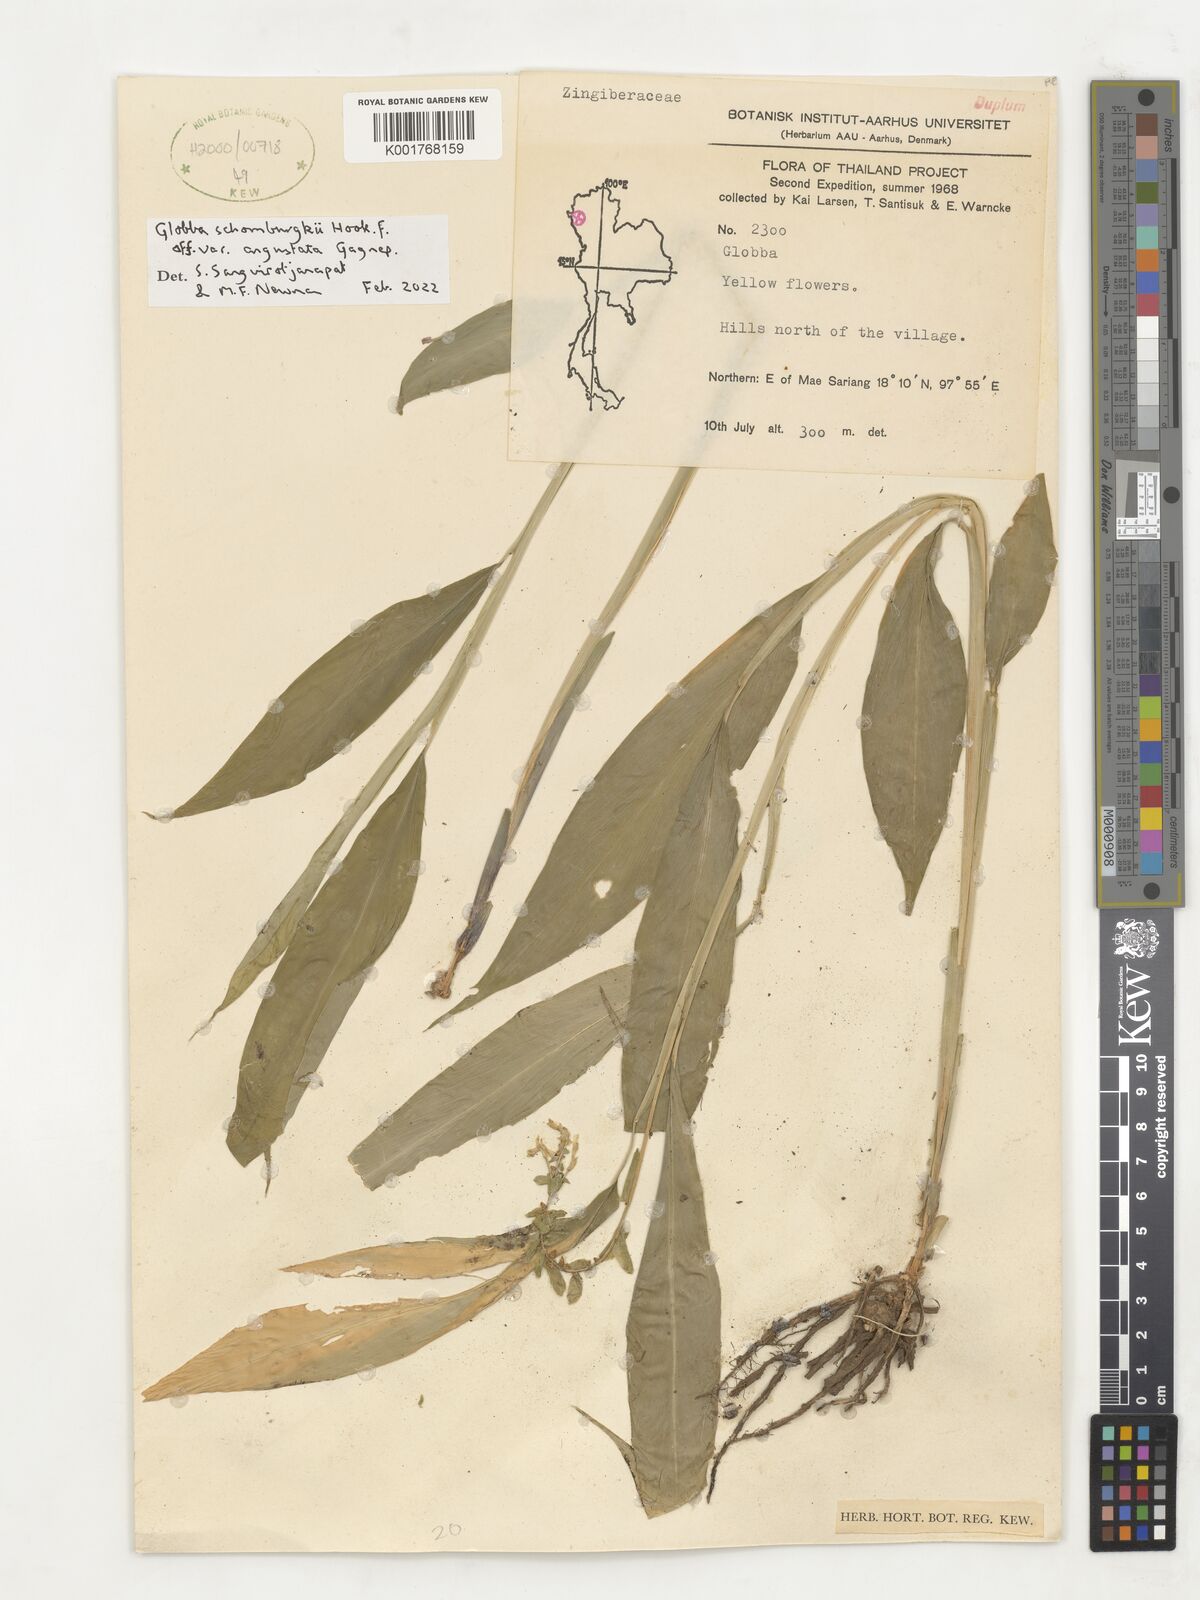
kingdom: Plantae
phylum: Tracheophyta
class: Liliopsida
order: Zingiberales
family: Zingiberaceae
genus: Globba
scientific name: Globba schomburgkii
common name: Dancing girl ginger
